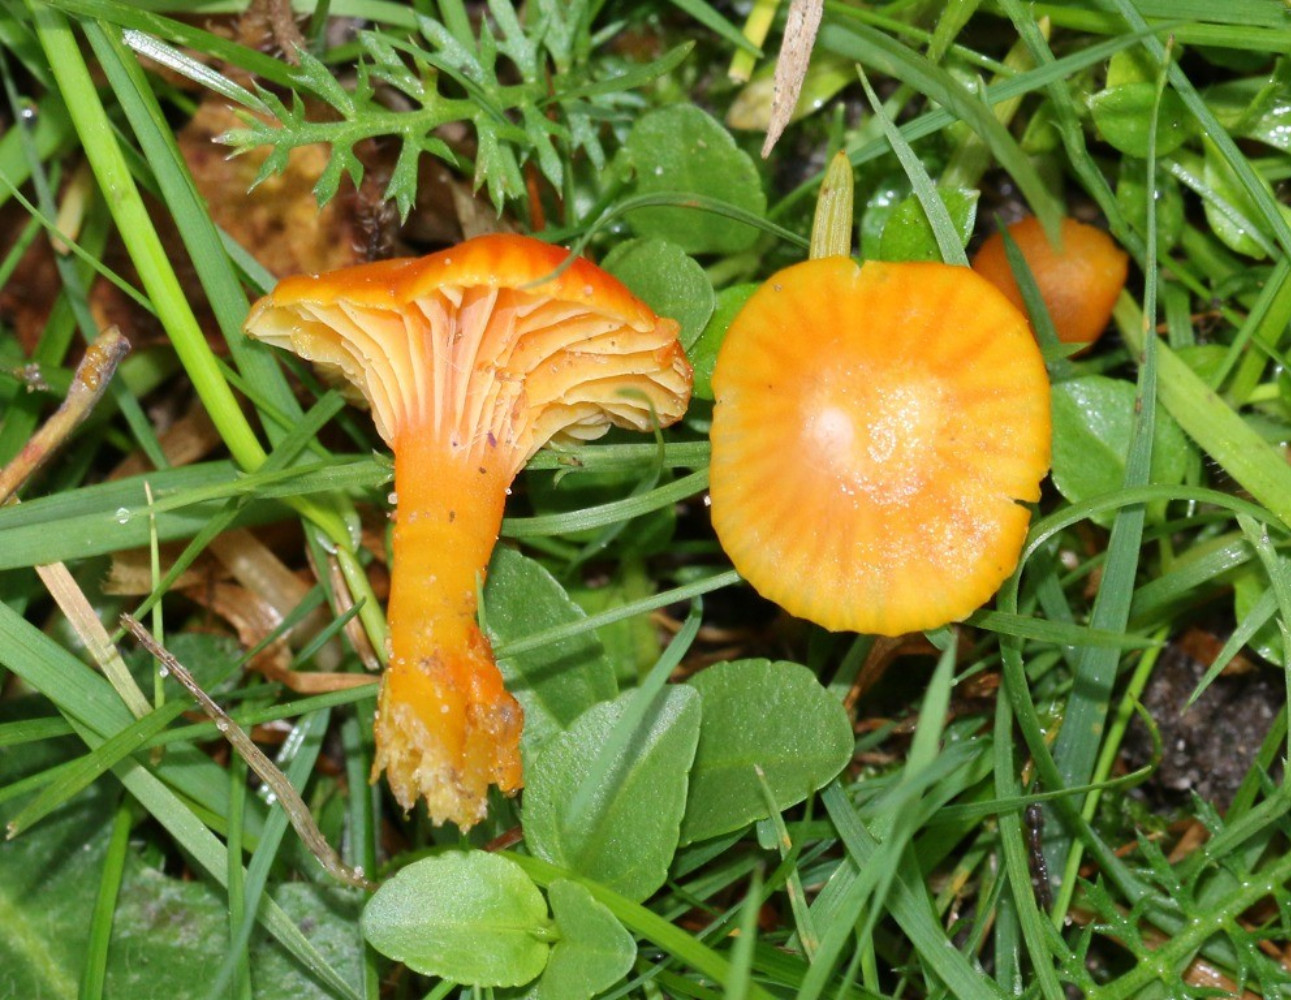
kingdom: Fungi
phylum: Basidiomycota
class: Agaricomycetes
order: Agaricales
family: Hygrophoraceae
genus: Hygrocybe
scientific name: Hygrocybe insipida
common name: liden vokshat
